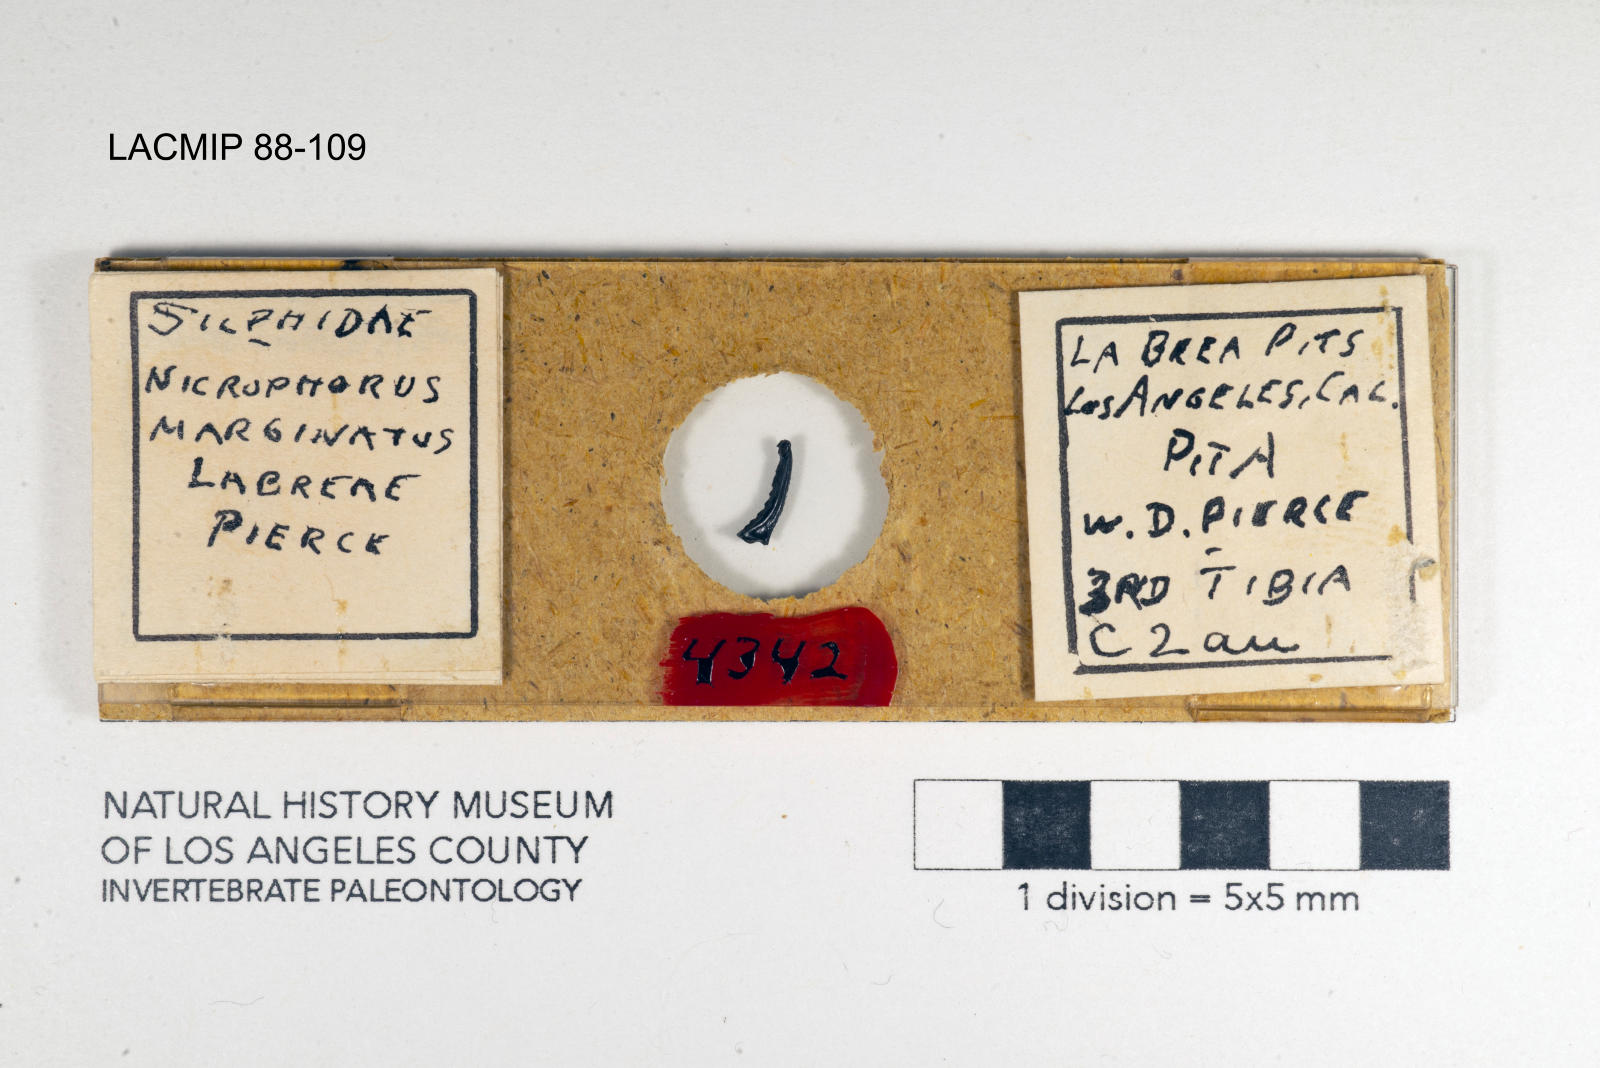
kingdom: Animalia
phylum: Arthropoda
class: Insecta
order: Coleoptera
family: Staphylinidae
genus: Nicrophorus
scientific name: Nicrophorus marginatus
